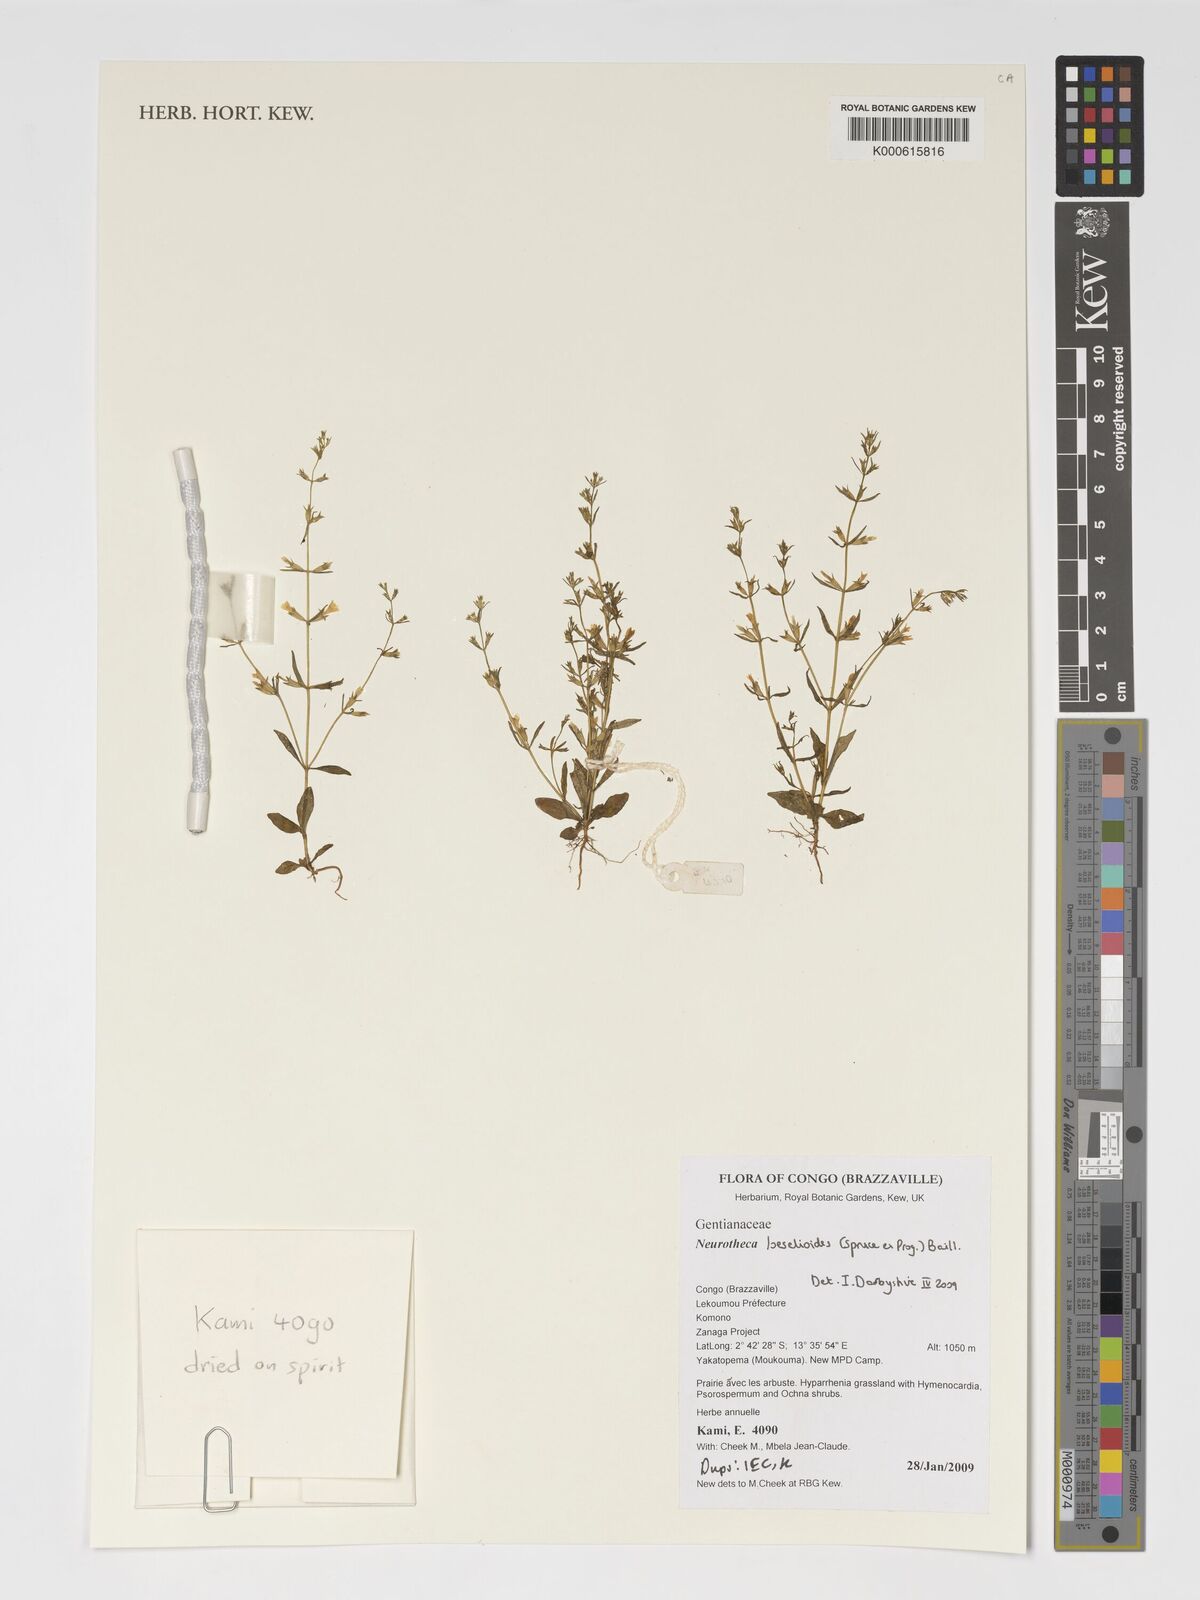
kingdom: Plantae
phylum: Tracheophyta
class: Magnoliopsida
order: Gentianales
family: Gentianaceae
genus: Neurotheca
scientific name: Neurotheca loeselioides
